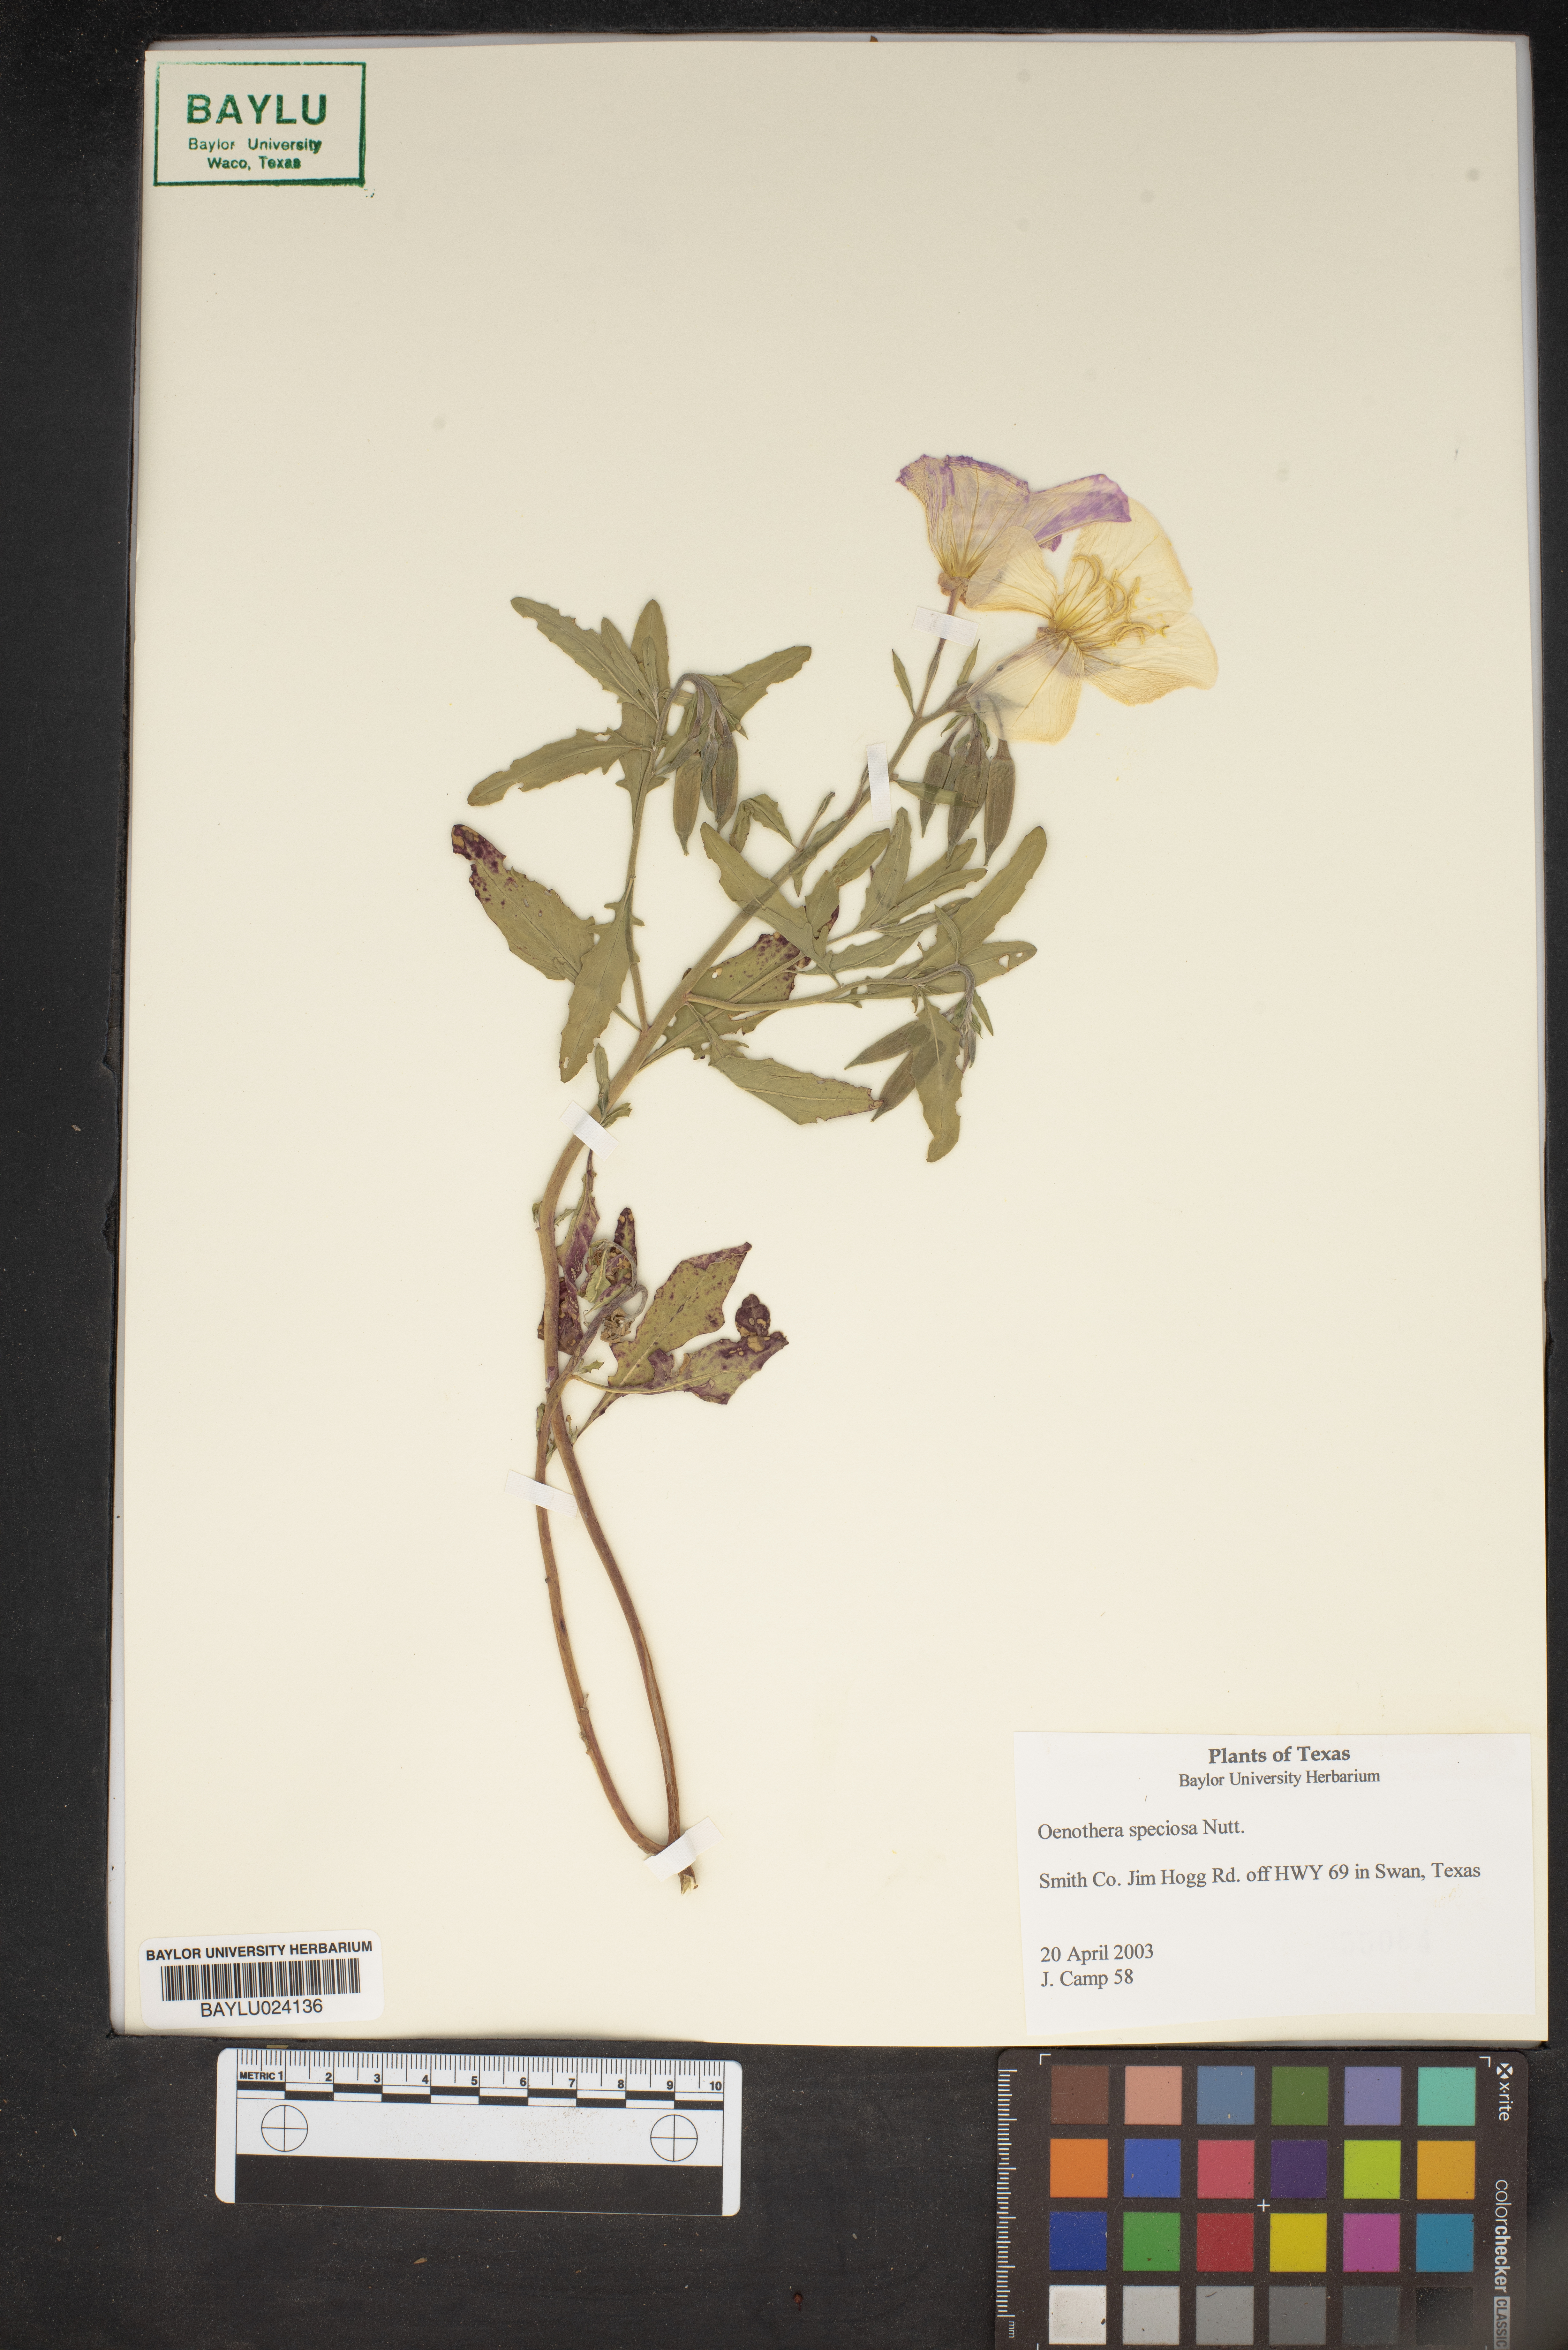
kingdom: Plantae
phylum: Tracheophyta
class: Magnoliopsida
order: Myrtales
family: Onagraceae
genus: Oenothera
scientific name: Oenothera speciosa
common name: White evening-primrose
